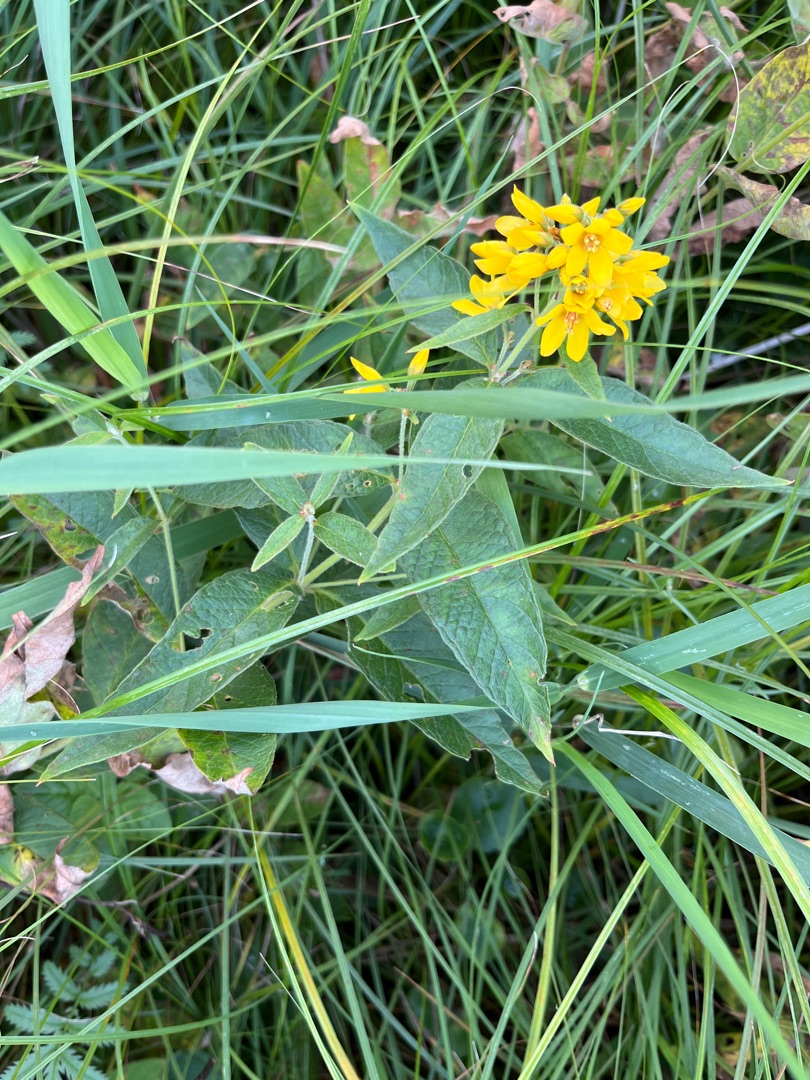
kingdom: Plantae
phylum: Tracheophyta
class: Magnoliopsida
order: Ericales
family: Primulaceae
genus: Lysimachia
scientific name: Lysimachia vulgaris
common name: Almindelig fredløs
